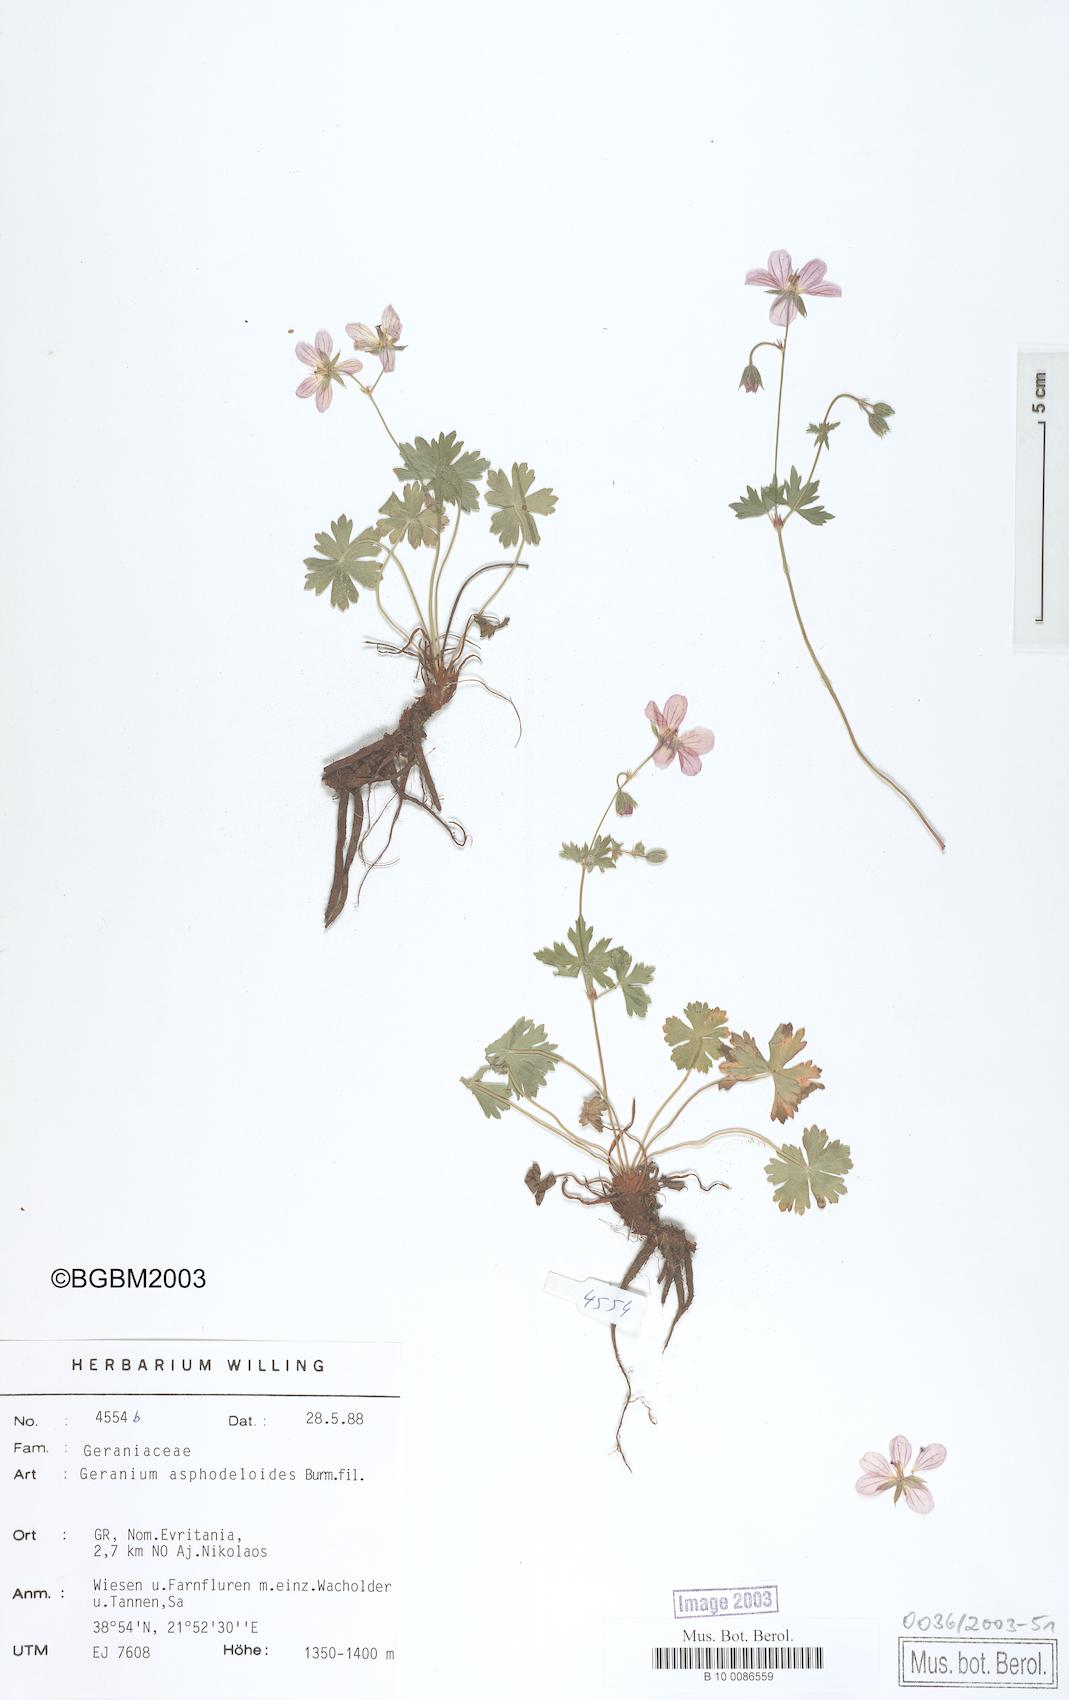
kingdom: Plantae
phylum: Tracheophyta
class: Magnoliopsida
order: Geraniales
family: Geraniaceae
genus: Geranium
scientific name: Geranium asphodeloides
